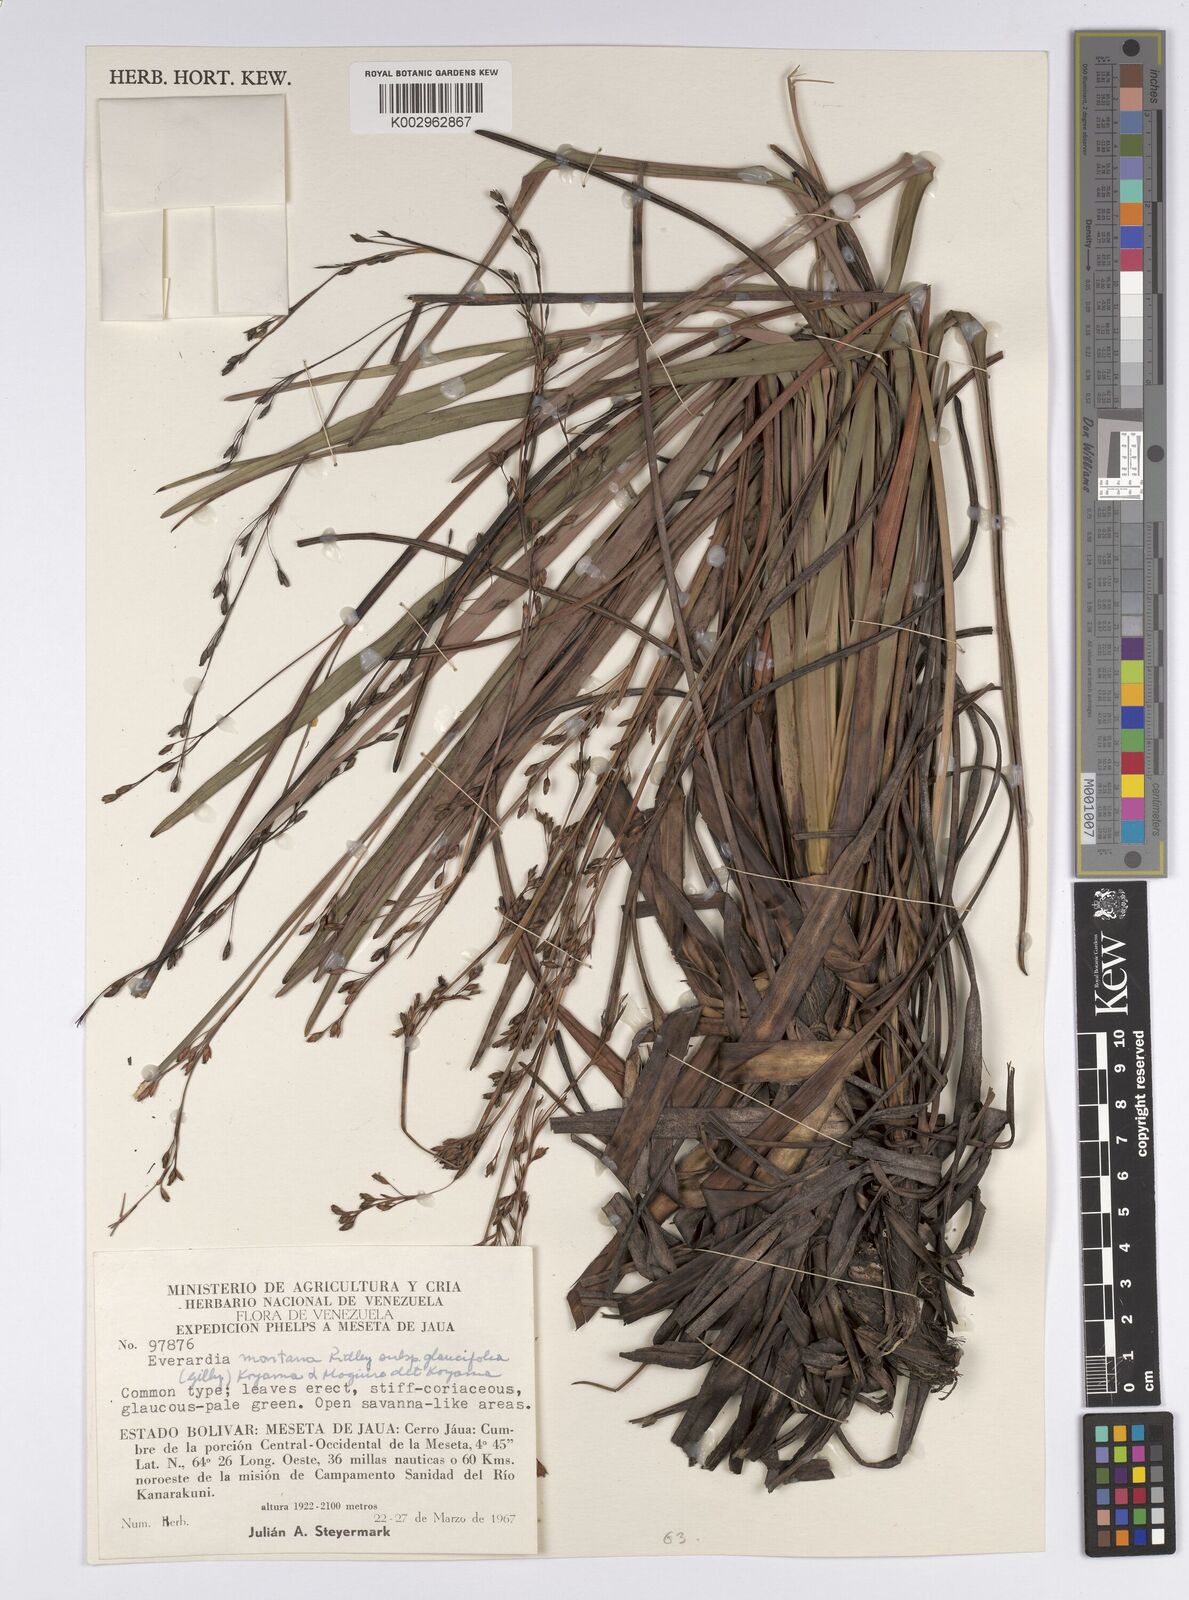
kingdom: Plantae
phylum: Tracheophyta
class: Liliopsida
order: Poales
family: Cyperaceae
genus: Cephalocarpus
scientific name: Cephalocarpus montanus
